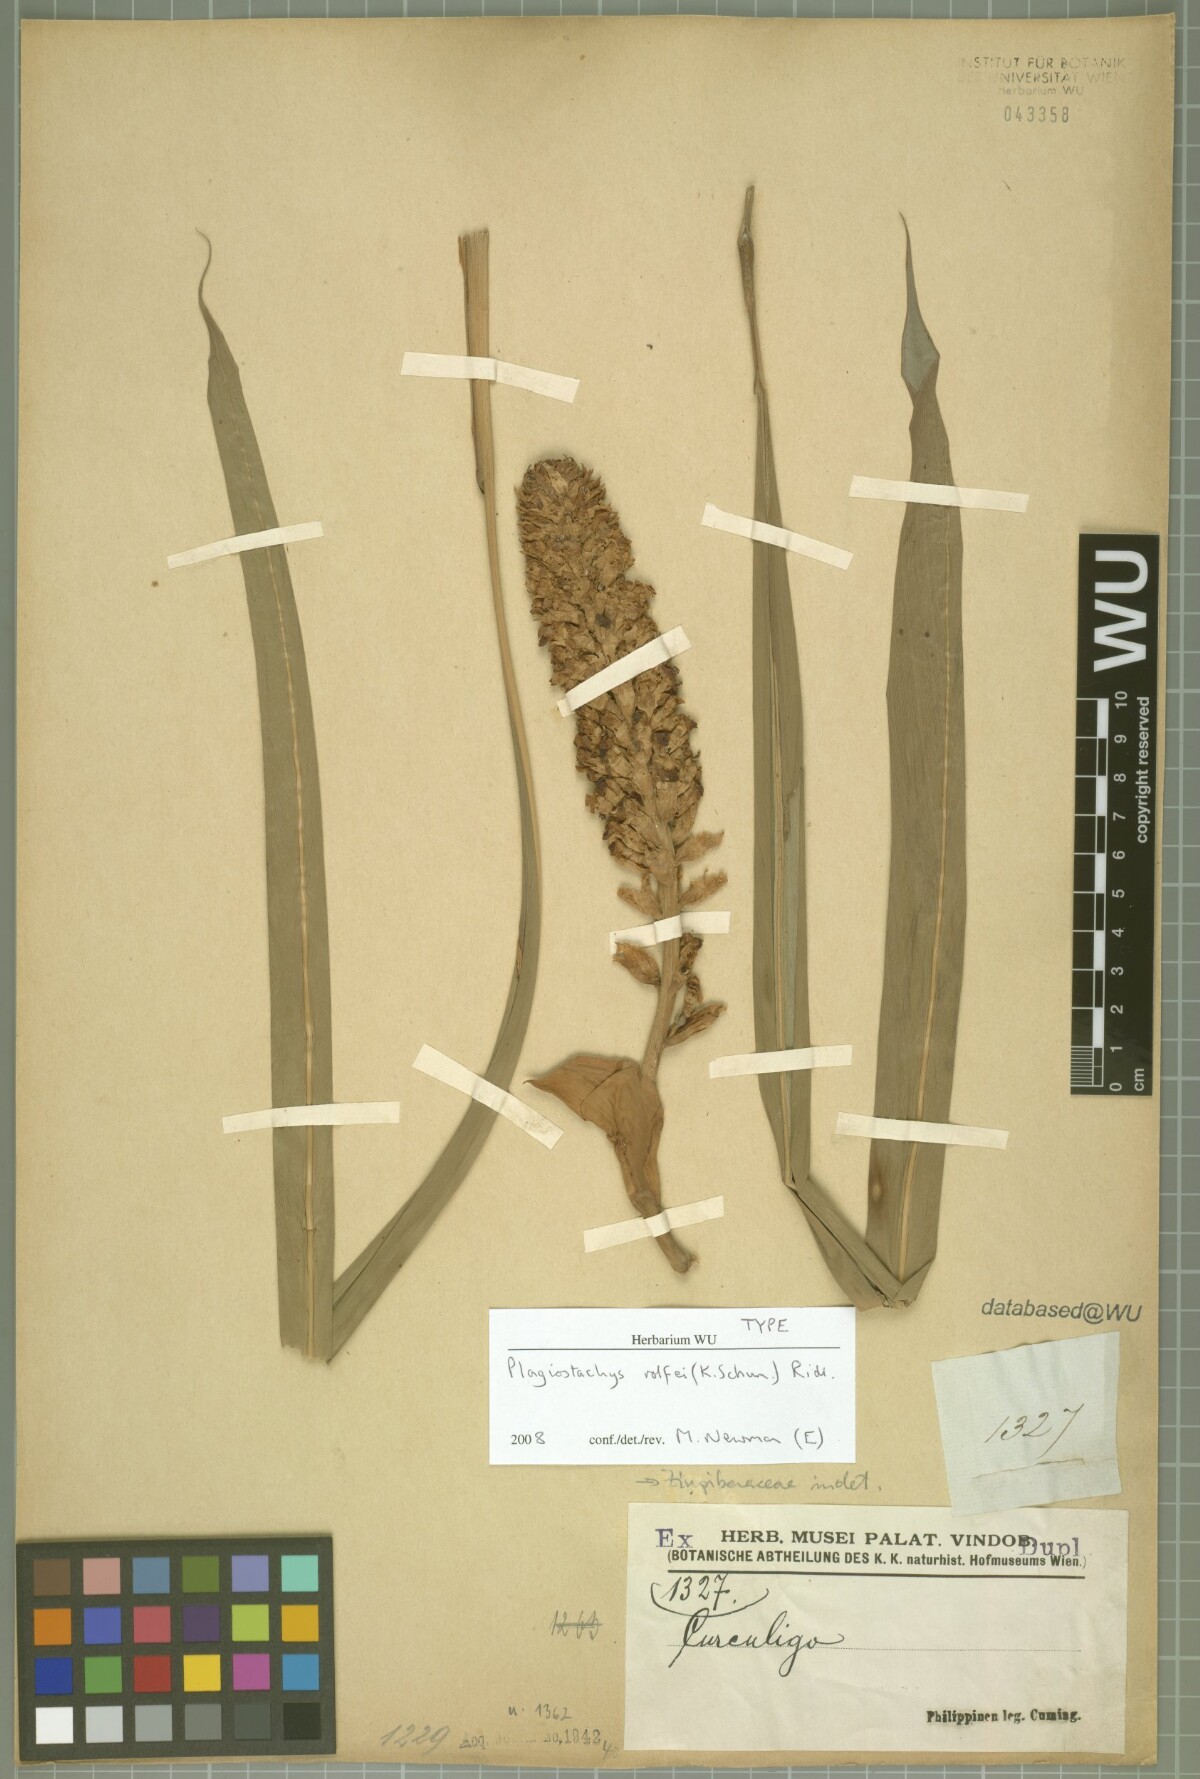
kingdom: Plantae
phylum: Tracheophyta
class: Liliopsida
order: Zingiberales
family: Zingiberaceae
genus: Plagiostachys
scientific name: Plagiostachys rolfei
